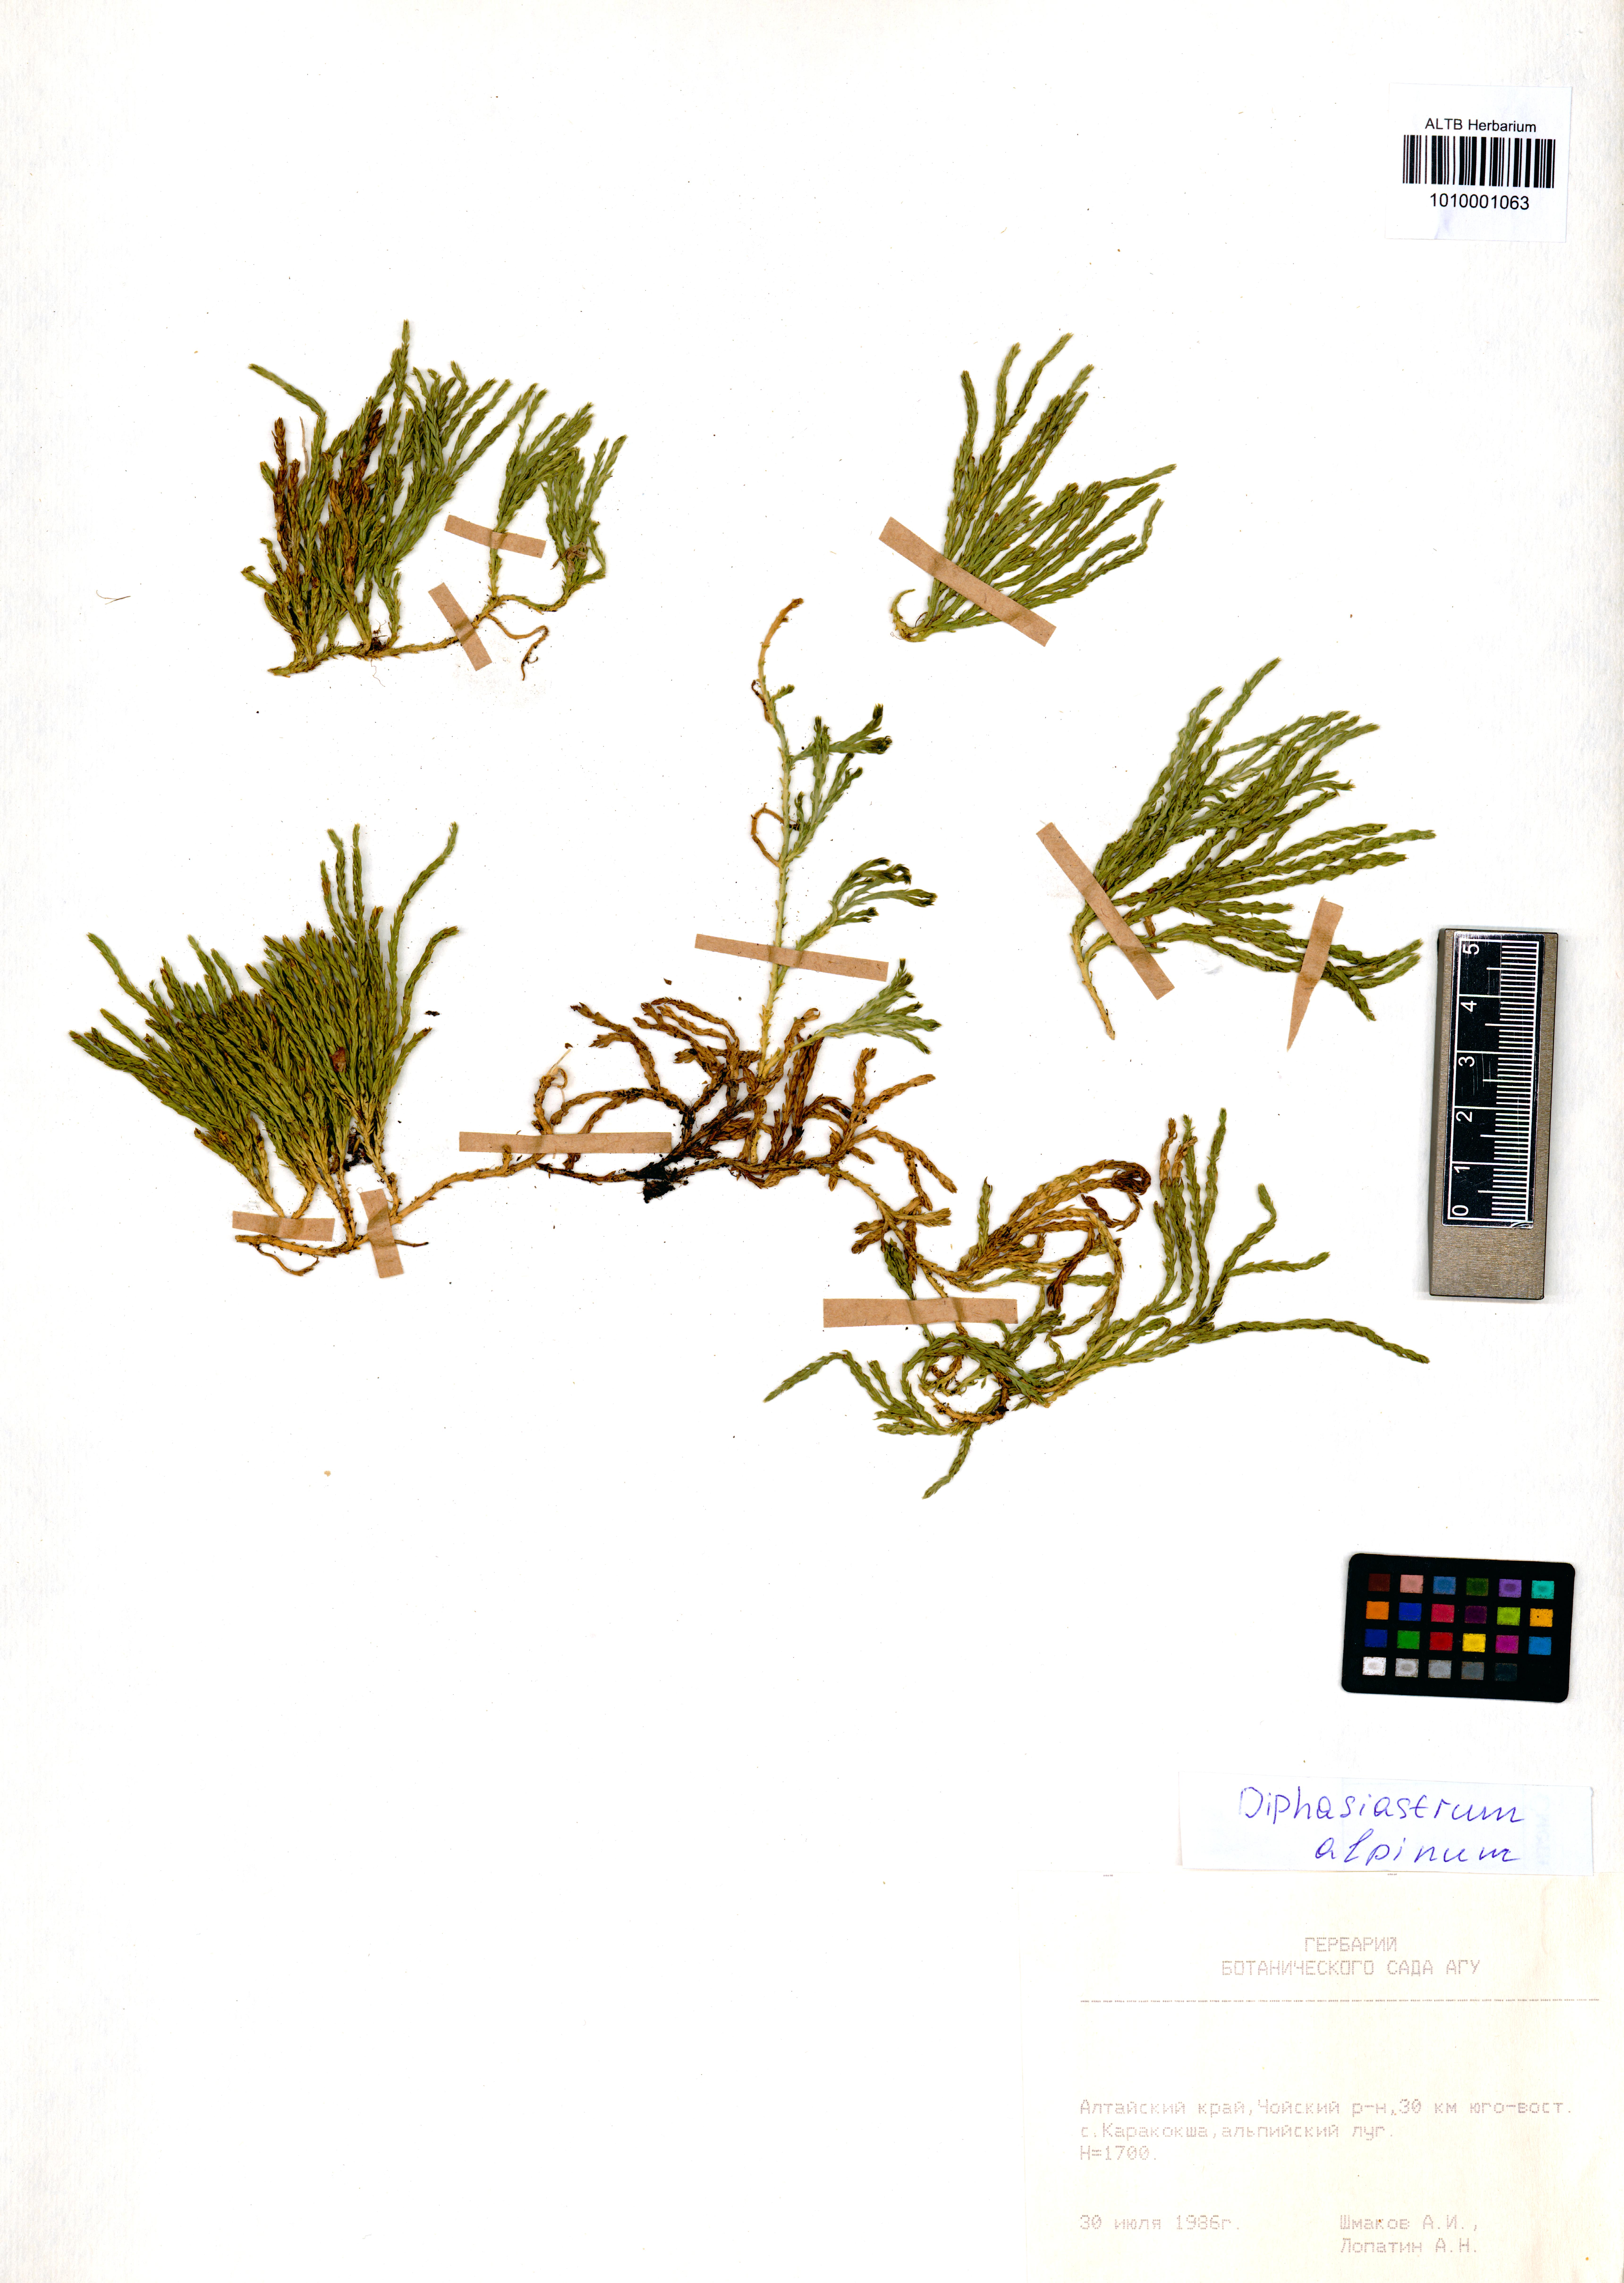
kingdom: Plantae
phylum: Tracheophyta
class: Lycopodiopsida
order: Lycopodiales
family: Lycopodiaceae
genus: Diphasiastrum
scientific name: Diphasiastrum alpinum
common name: Alpine clubmoss
